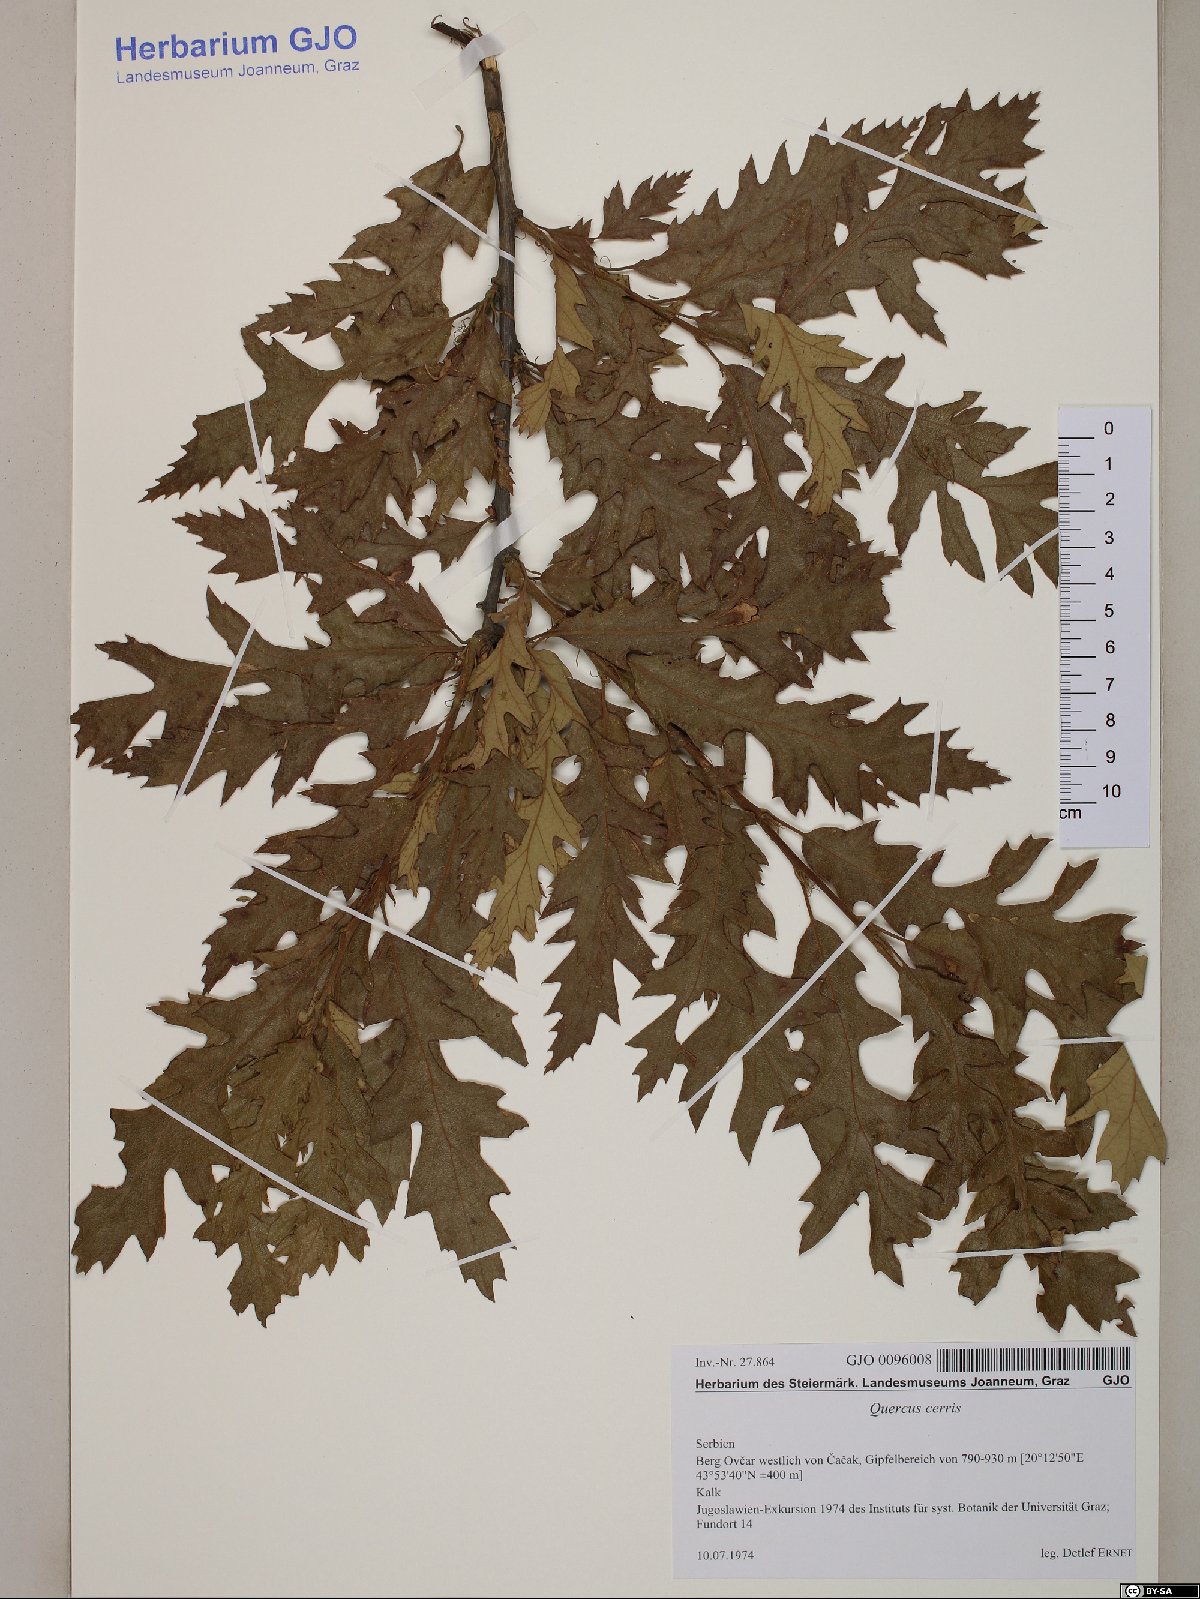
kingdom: Plantae
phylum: Tracheophyta
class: Magnoliopsida
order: Fagales
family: Fagaceae
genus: Quercus
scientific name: Quercus cerris
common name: Turkey oak
